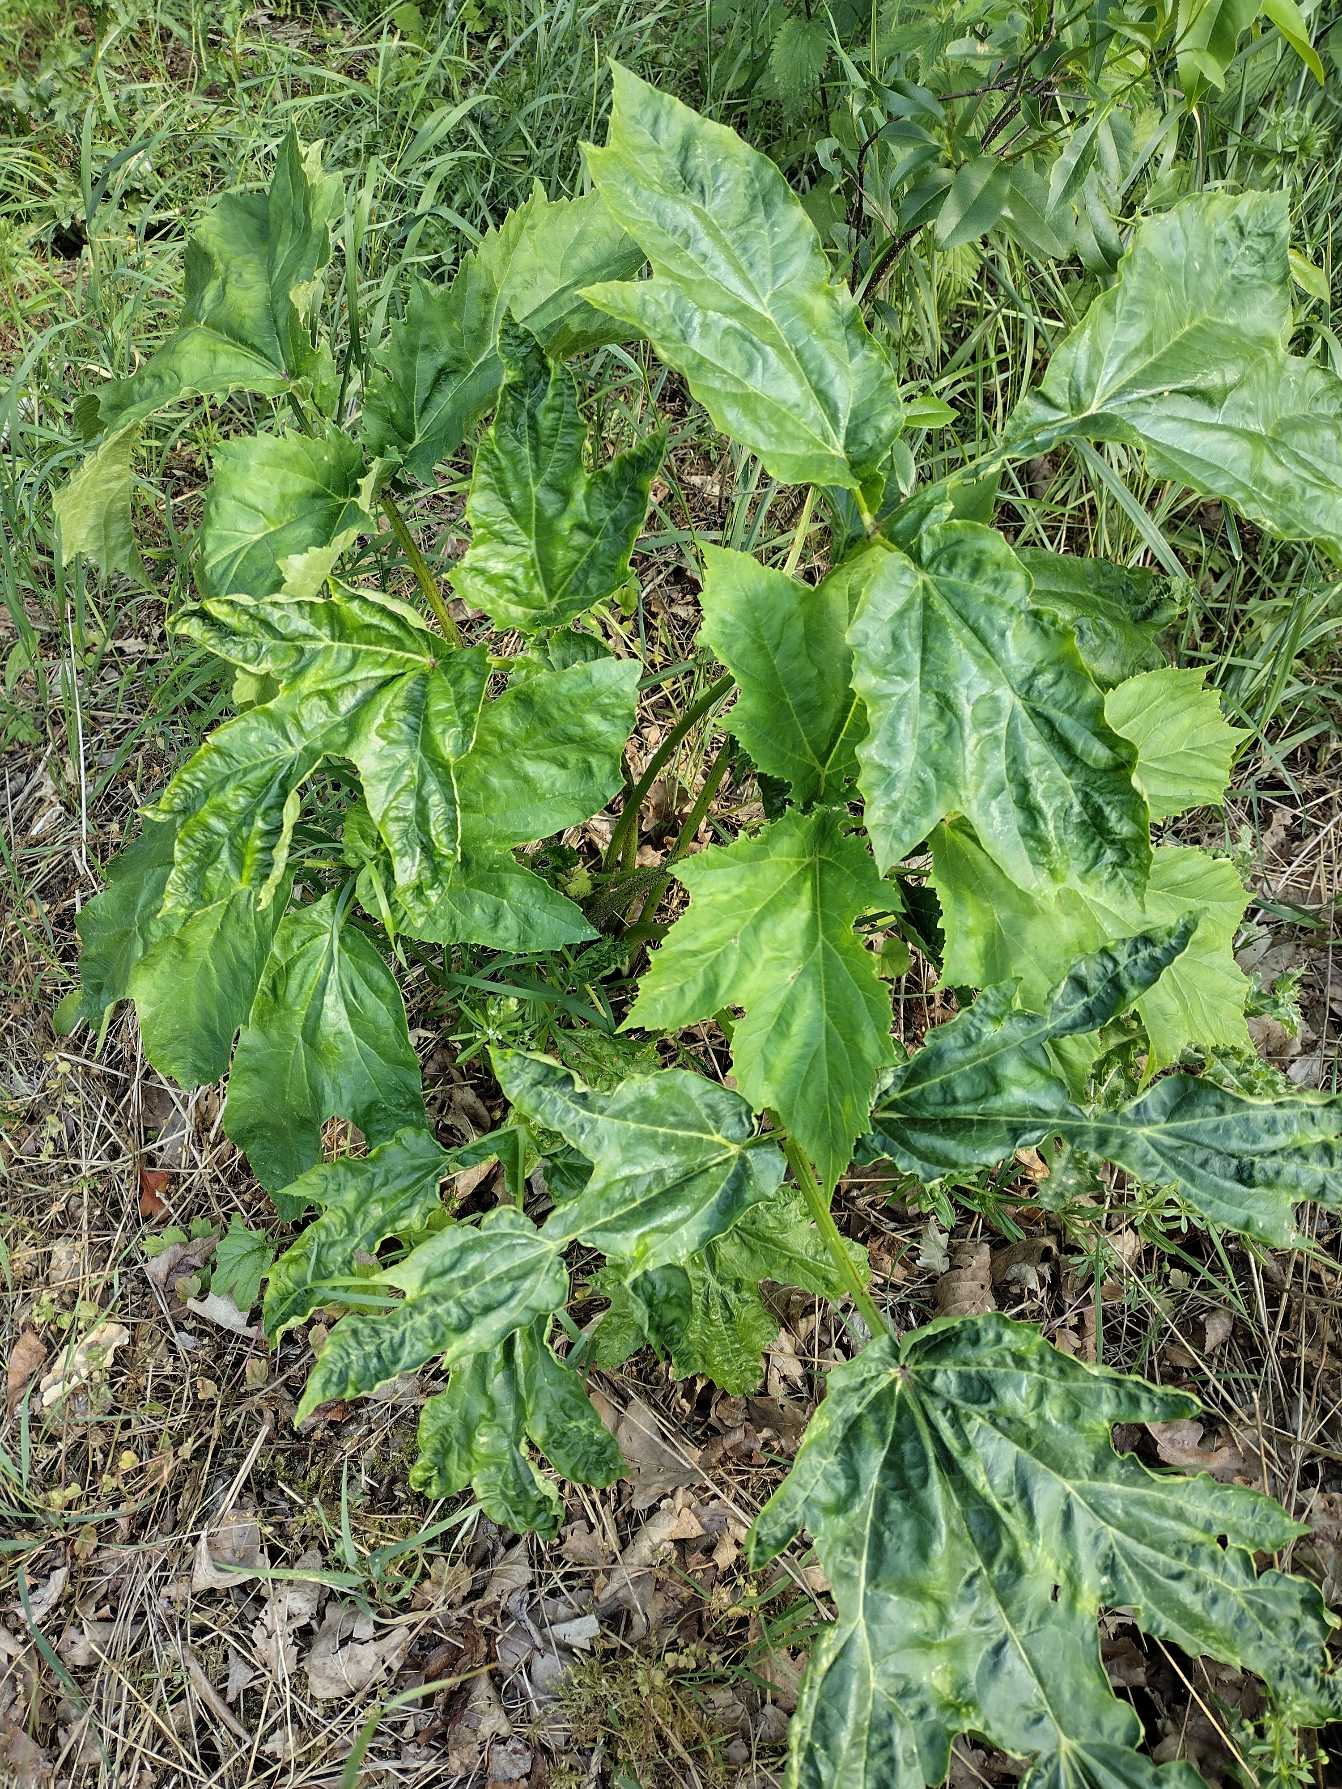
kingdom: Plantae
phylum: Tracheophyta
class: Magnoliopsida
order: Apiales
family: Apiaceae
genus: Heracleum
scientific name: Heracleum mantegazzianum
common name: Kæmpe-bjørneklo
